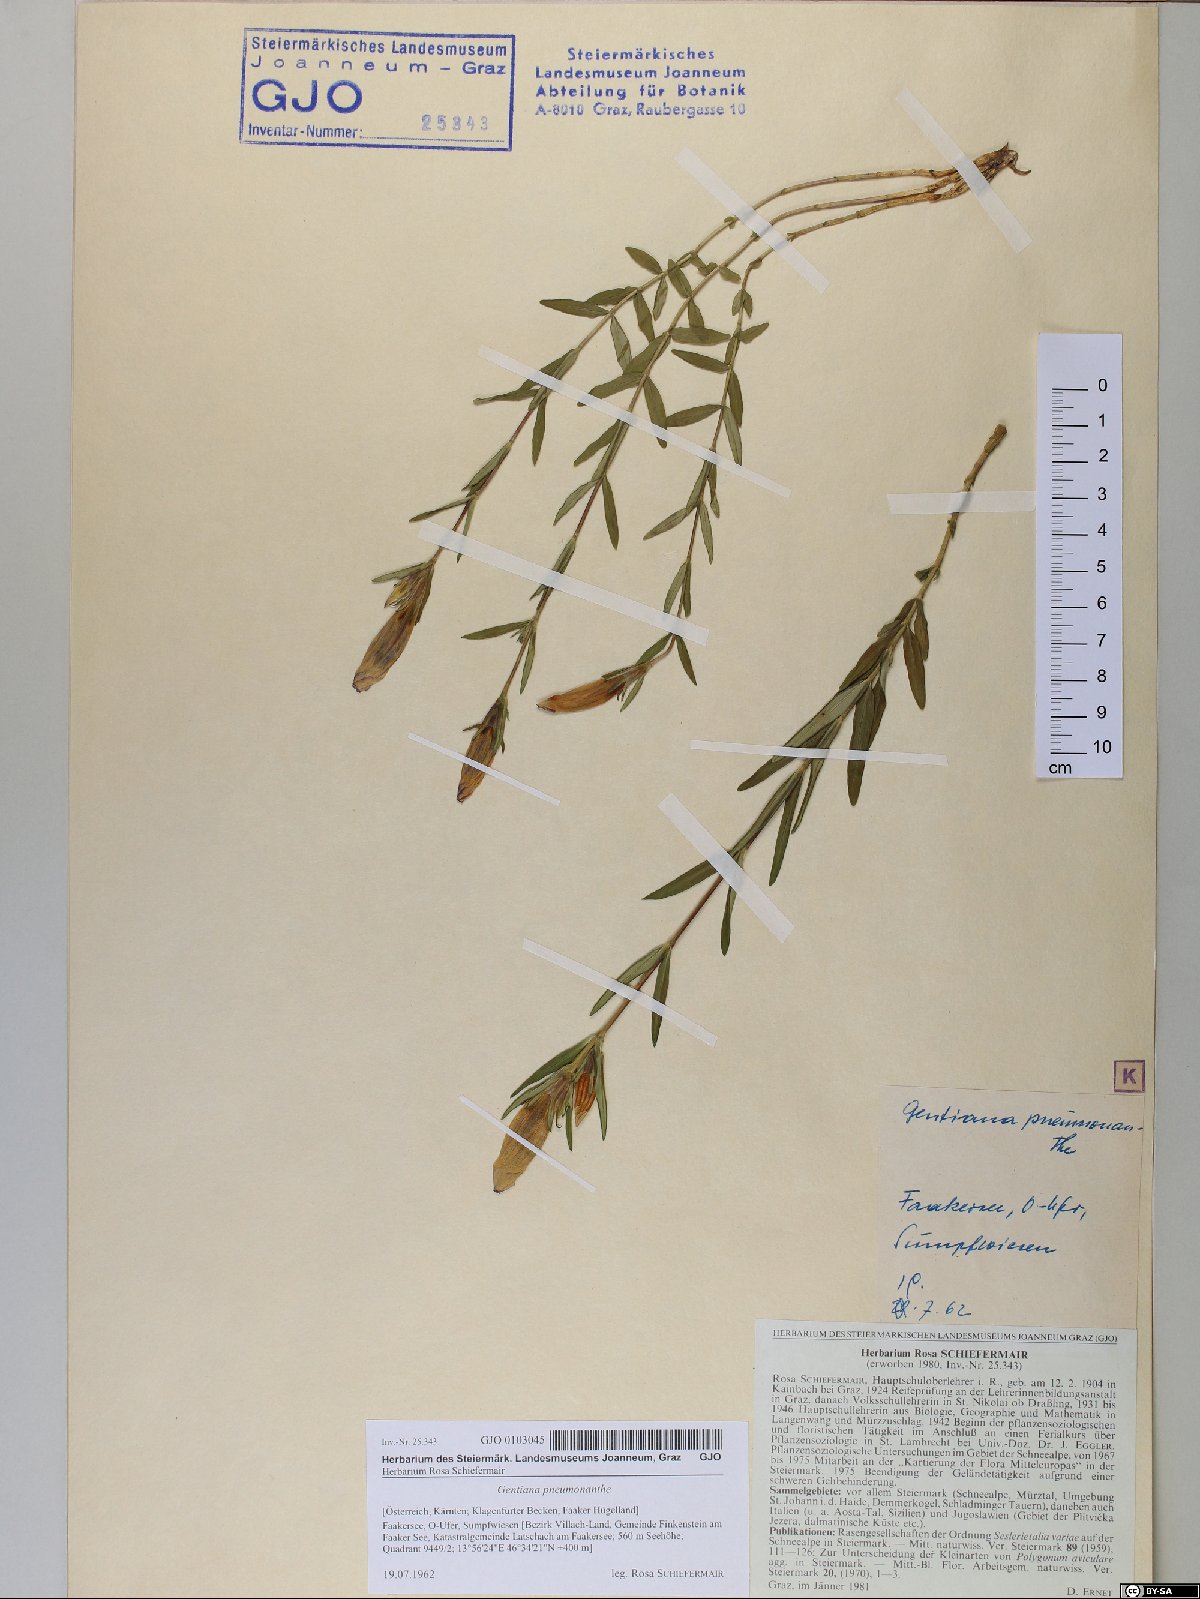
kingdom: Plantae
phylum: Tracheophyta
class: Magnoliopsida
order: Gentianales
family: Gentianaceae
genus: Gentiana
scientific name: Gentiana pneumonanthe
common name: Marsh gentian
